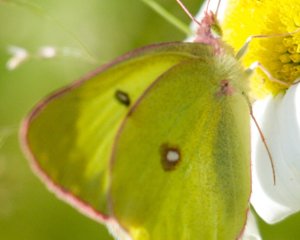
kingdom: Animalia
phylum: Arthropoda
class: Insecta
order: Lepidoptera
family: Pieridae
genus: Colias
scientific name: Colias interior
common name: Pink-edged Sulphur
